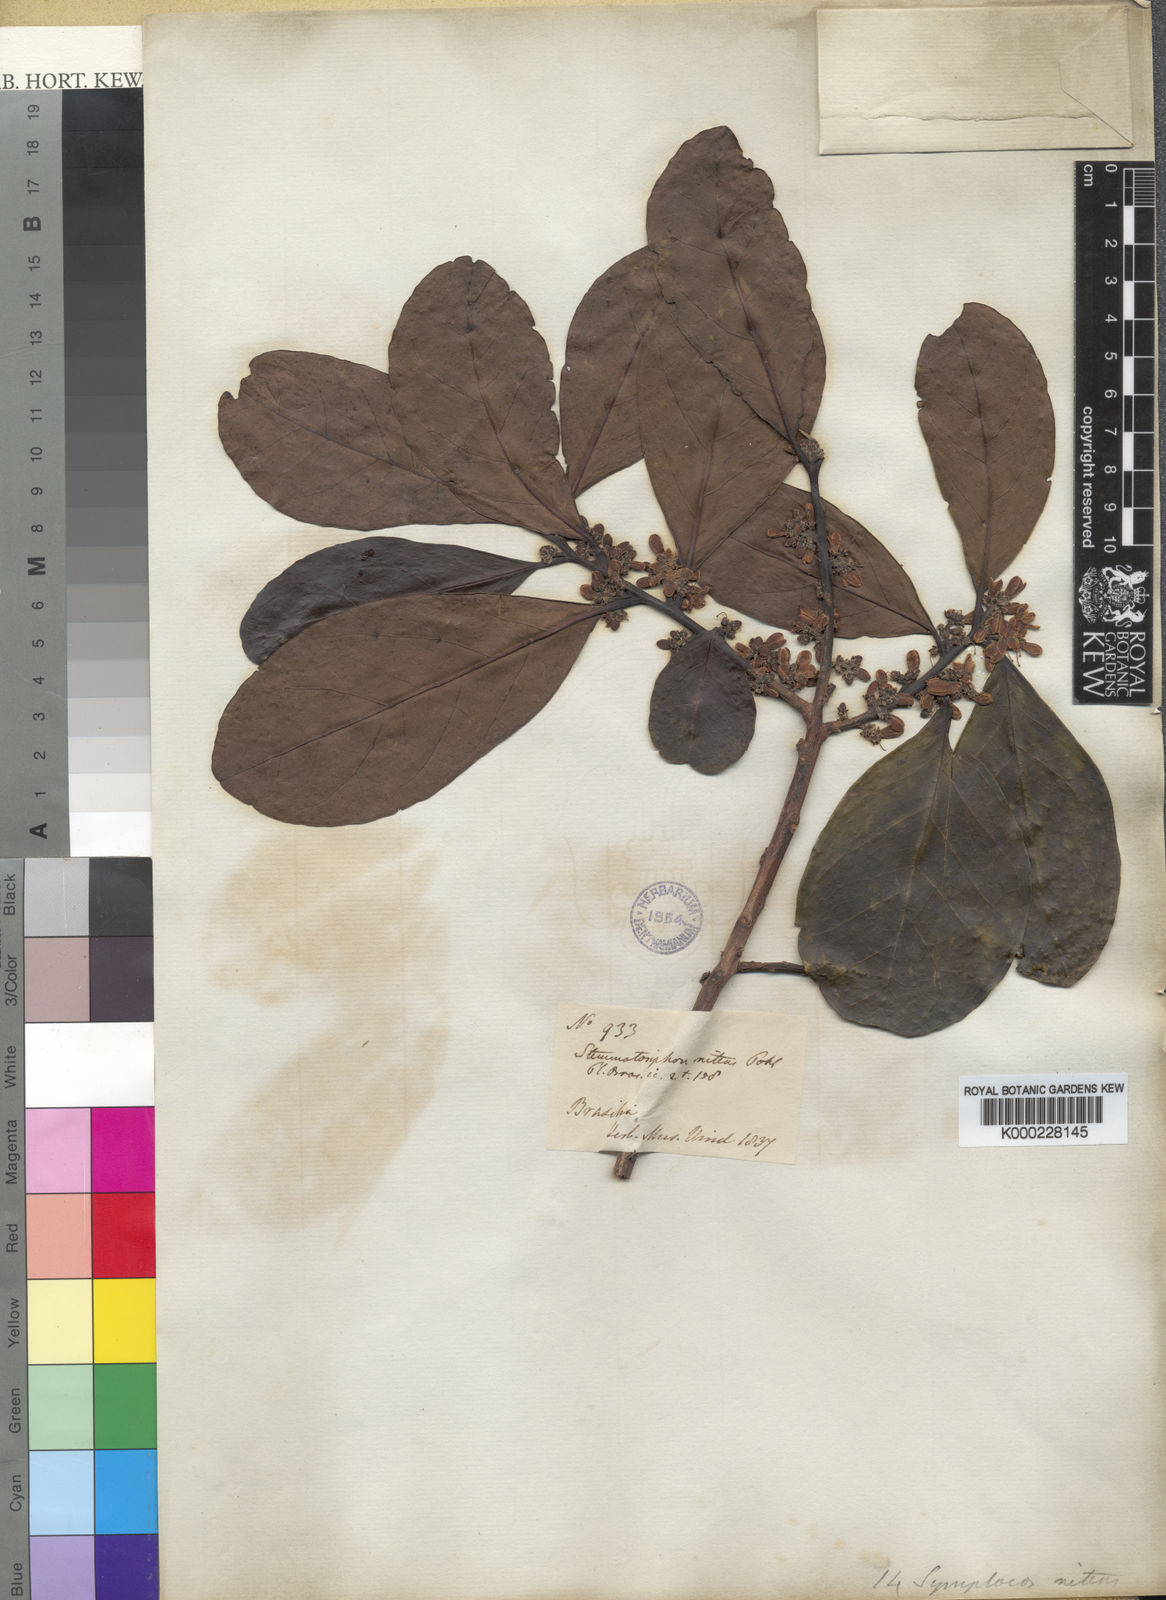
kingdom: Plantae
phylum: Tracheophyta
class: Magnoliopsida
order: Ericales
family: Symplocaceae
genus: Symplocos
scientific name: Symplocos nitens
